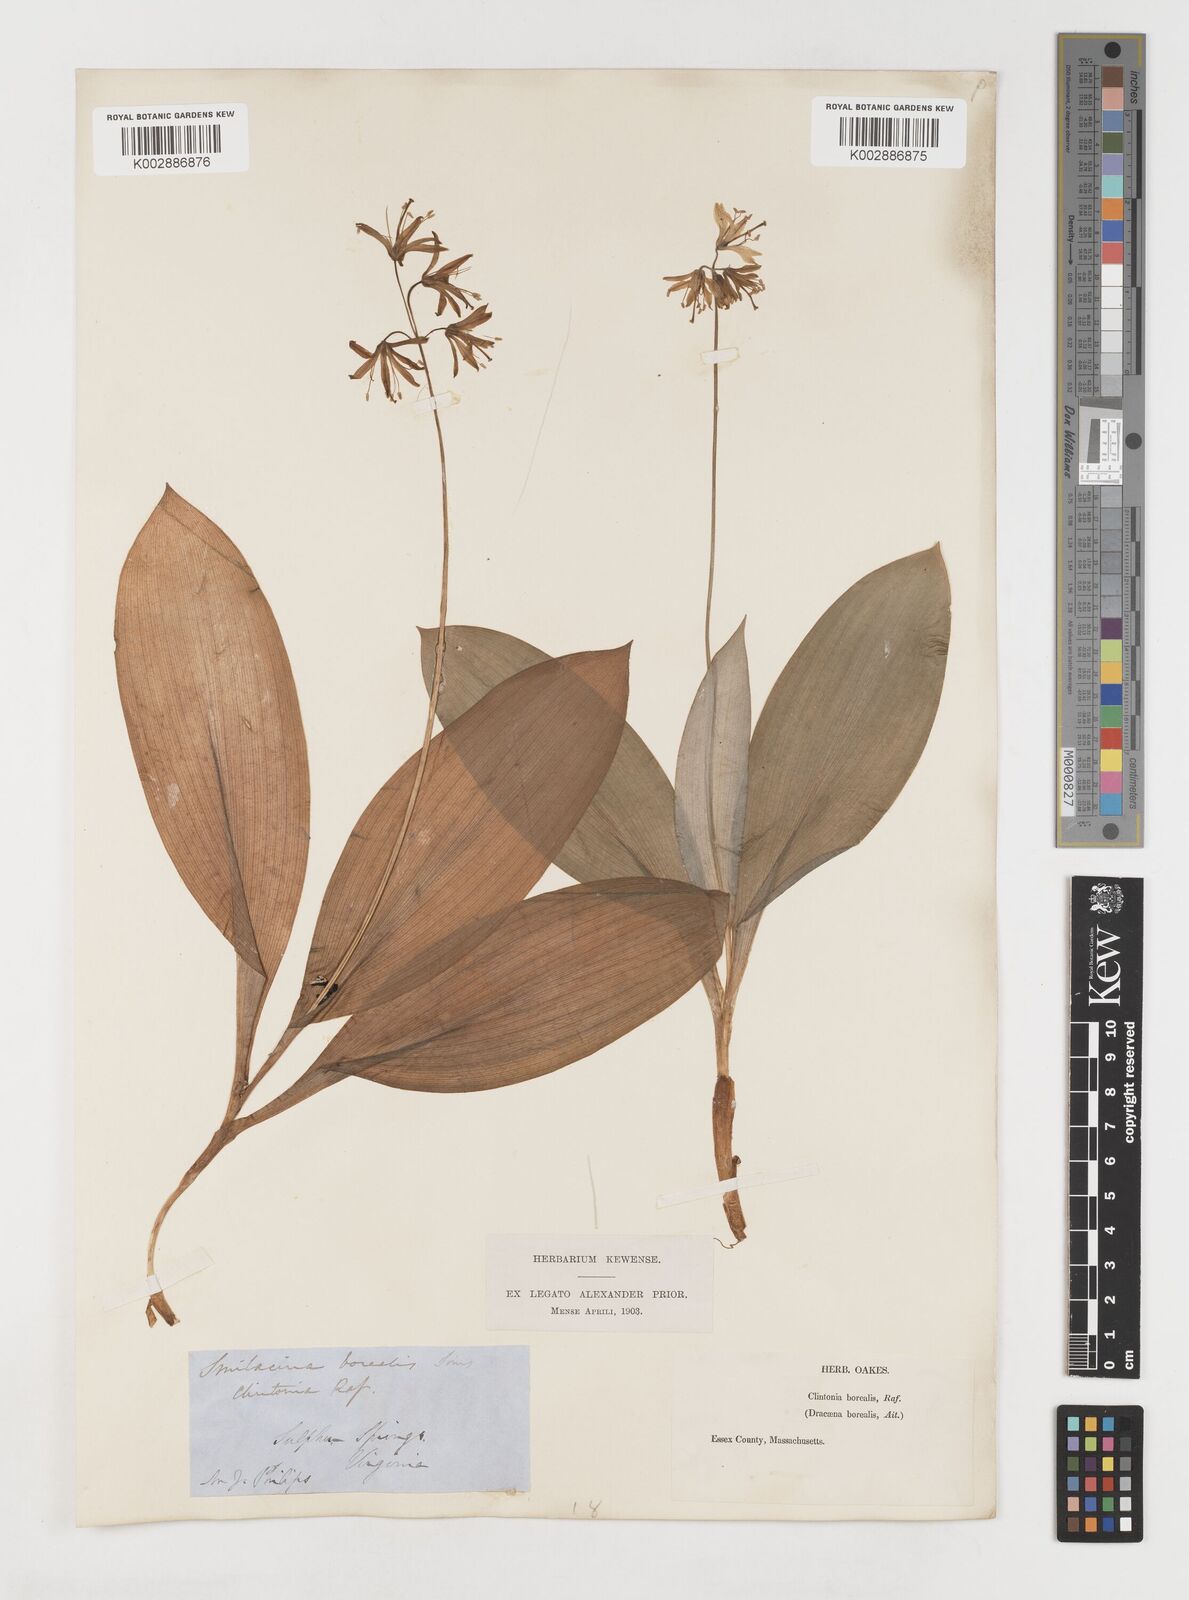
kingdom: Plantae
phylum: Tracheophyta
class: Liliopsida
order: Liliales
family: Liliaceae
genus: Clintonia
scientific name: Clintonia borealis
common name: Yellow clintonia
